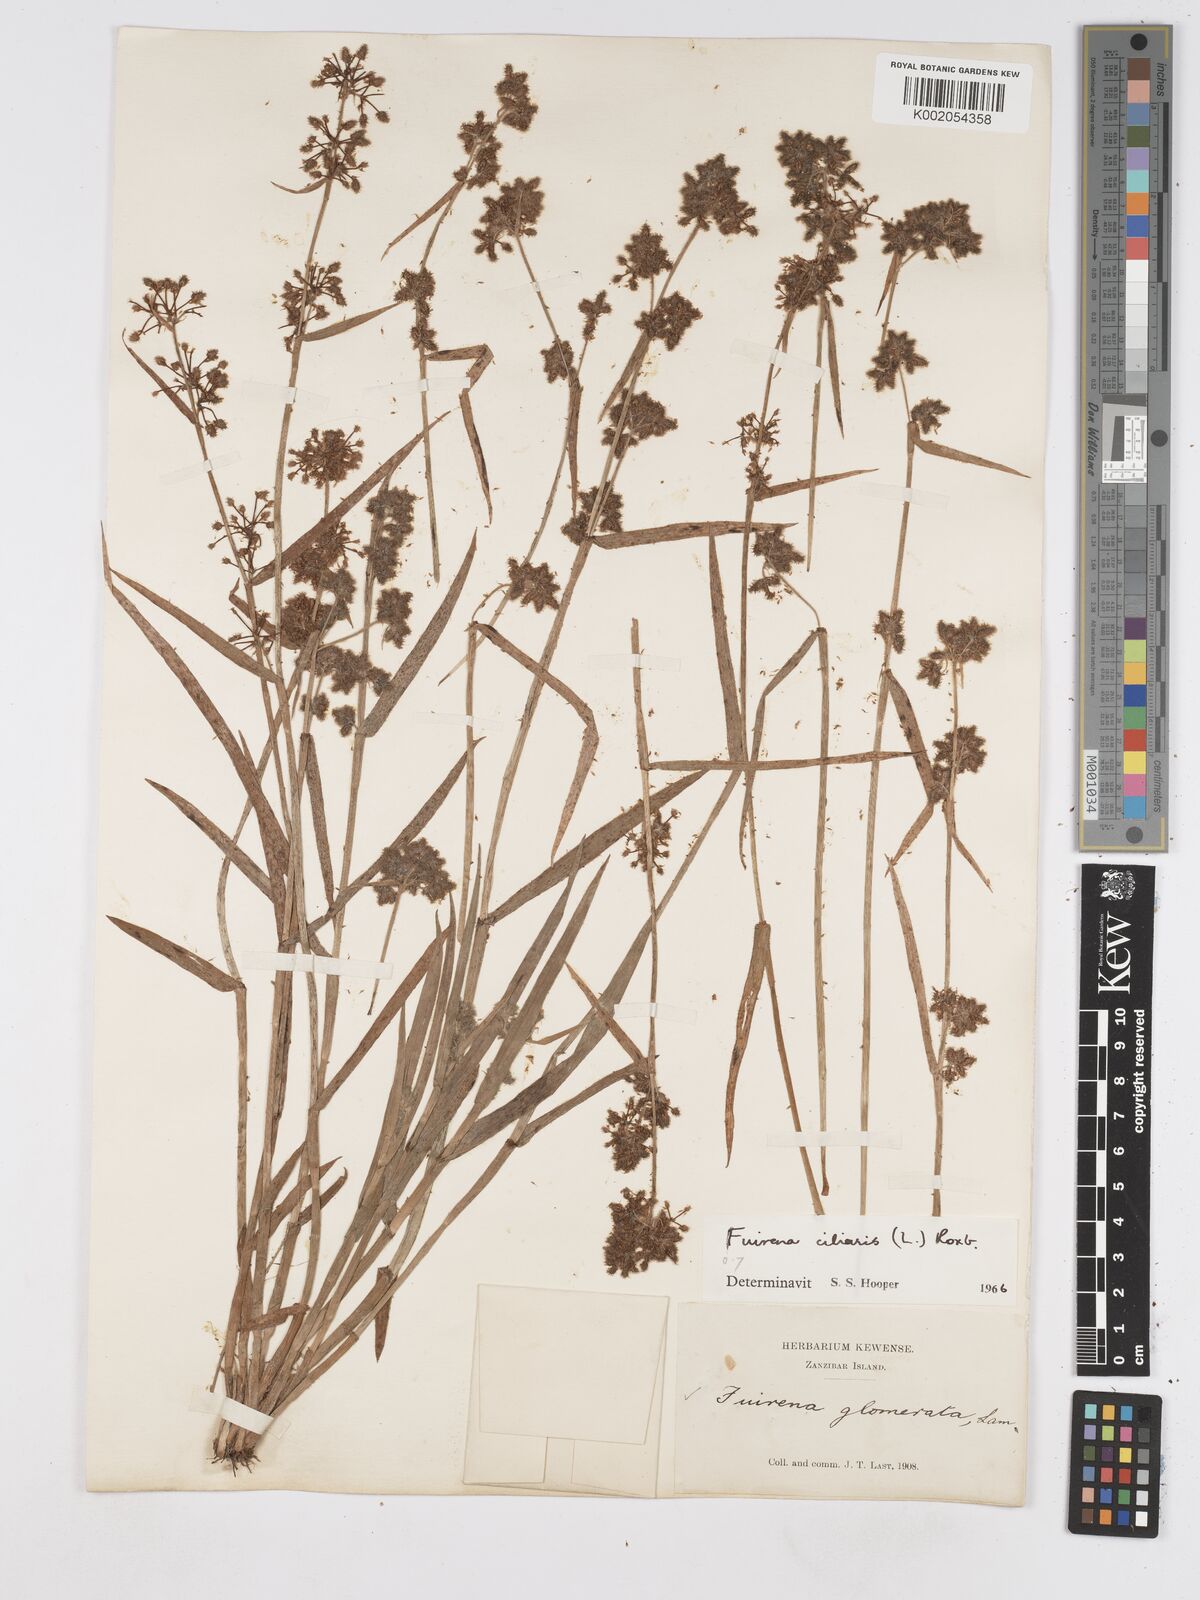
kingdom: Plantae
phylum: Tracheophyta
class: Liliopsida
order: Poales
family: Cyperaceae
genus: Fuirena
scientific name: Fuirena ciliaris
